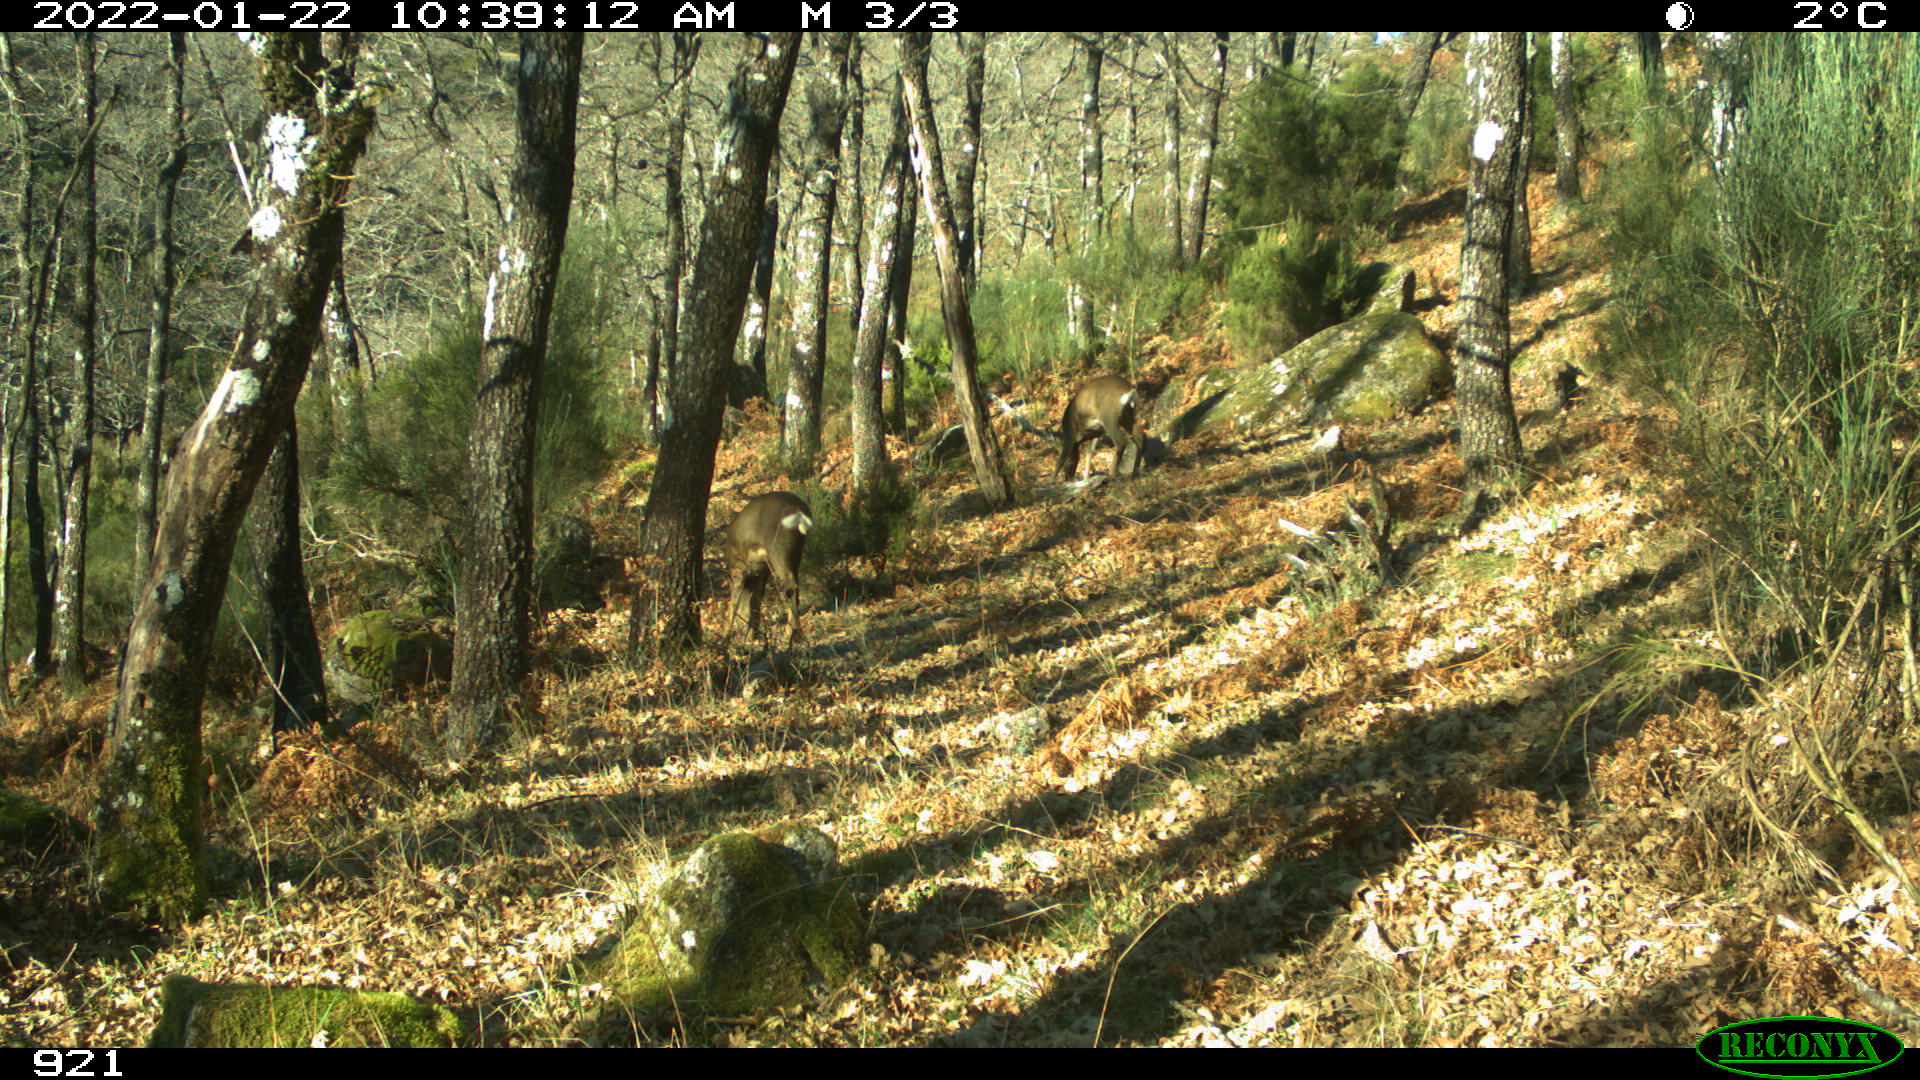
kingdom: Animalia
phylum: Chordata
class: Mammalia
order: Artiodactyla
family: Cervidae
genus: Capreolus
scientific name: Capreolus capreolus
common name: Western roe deer
